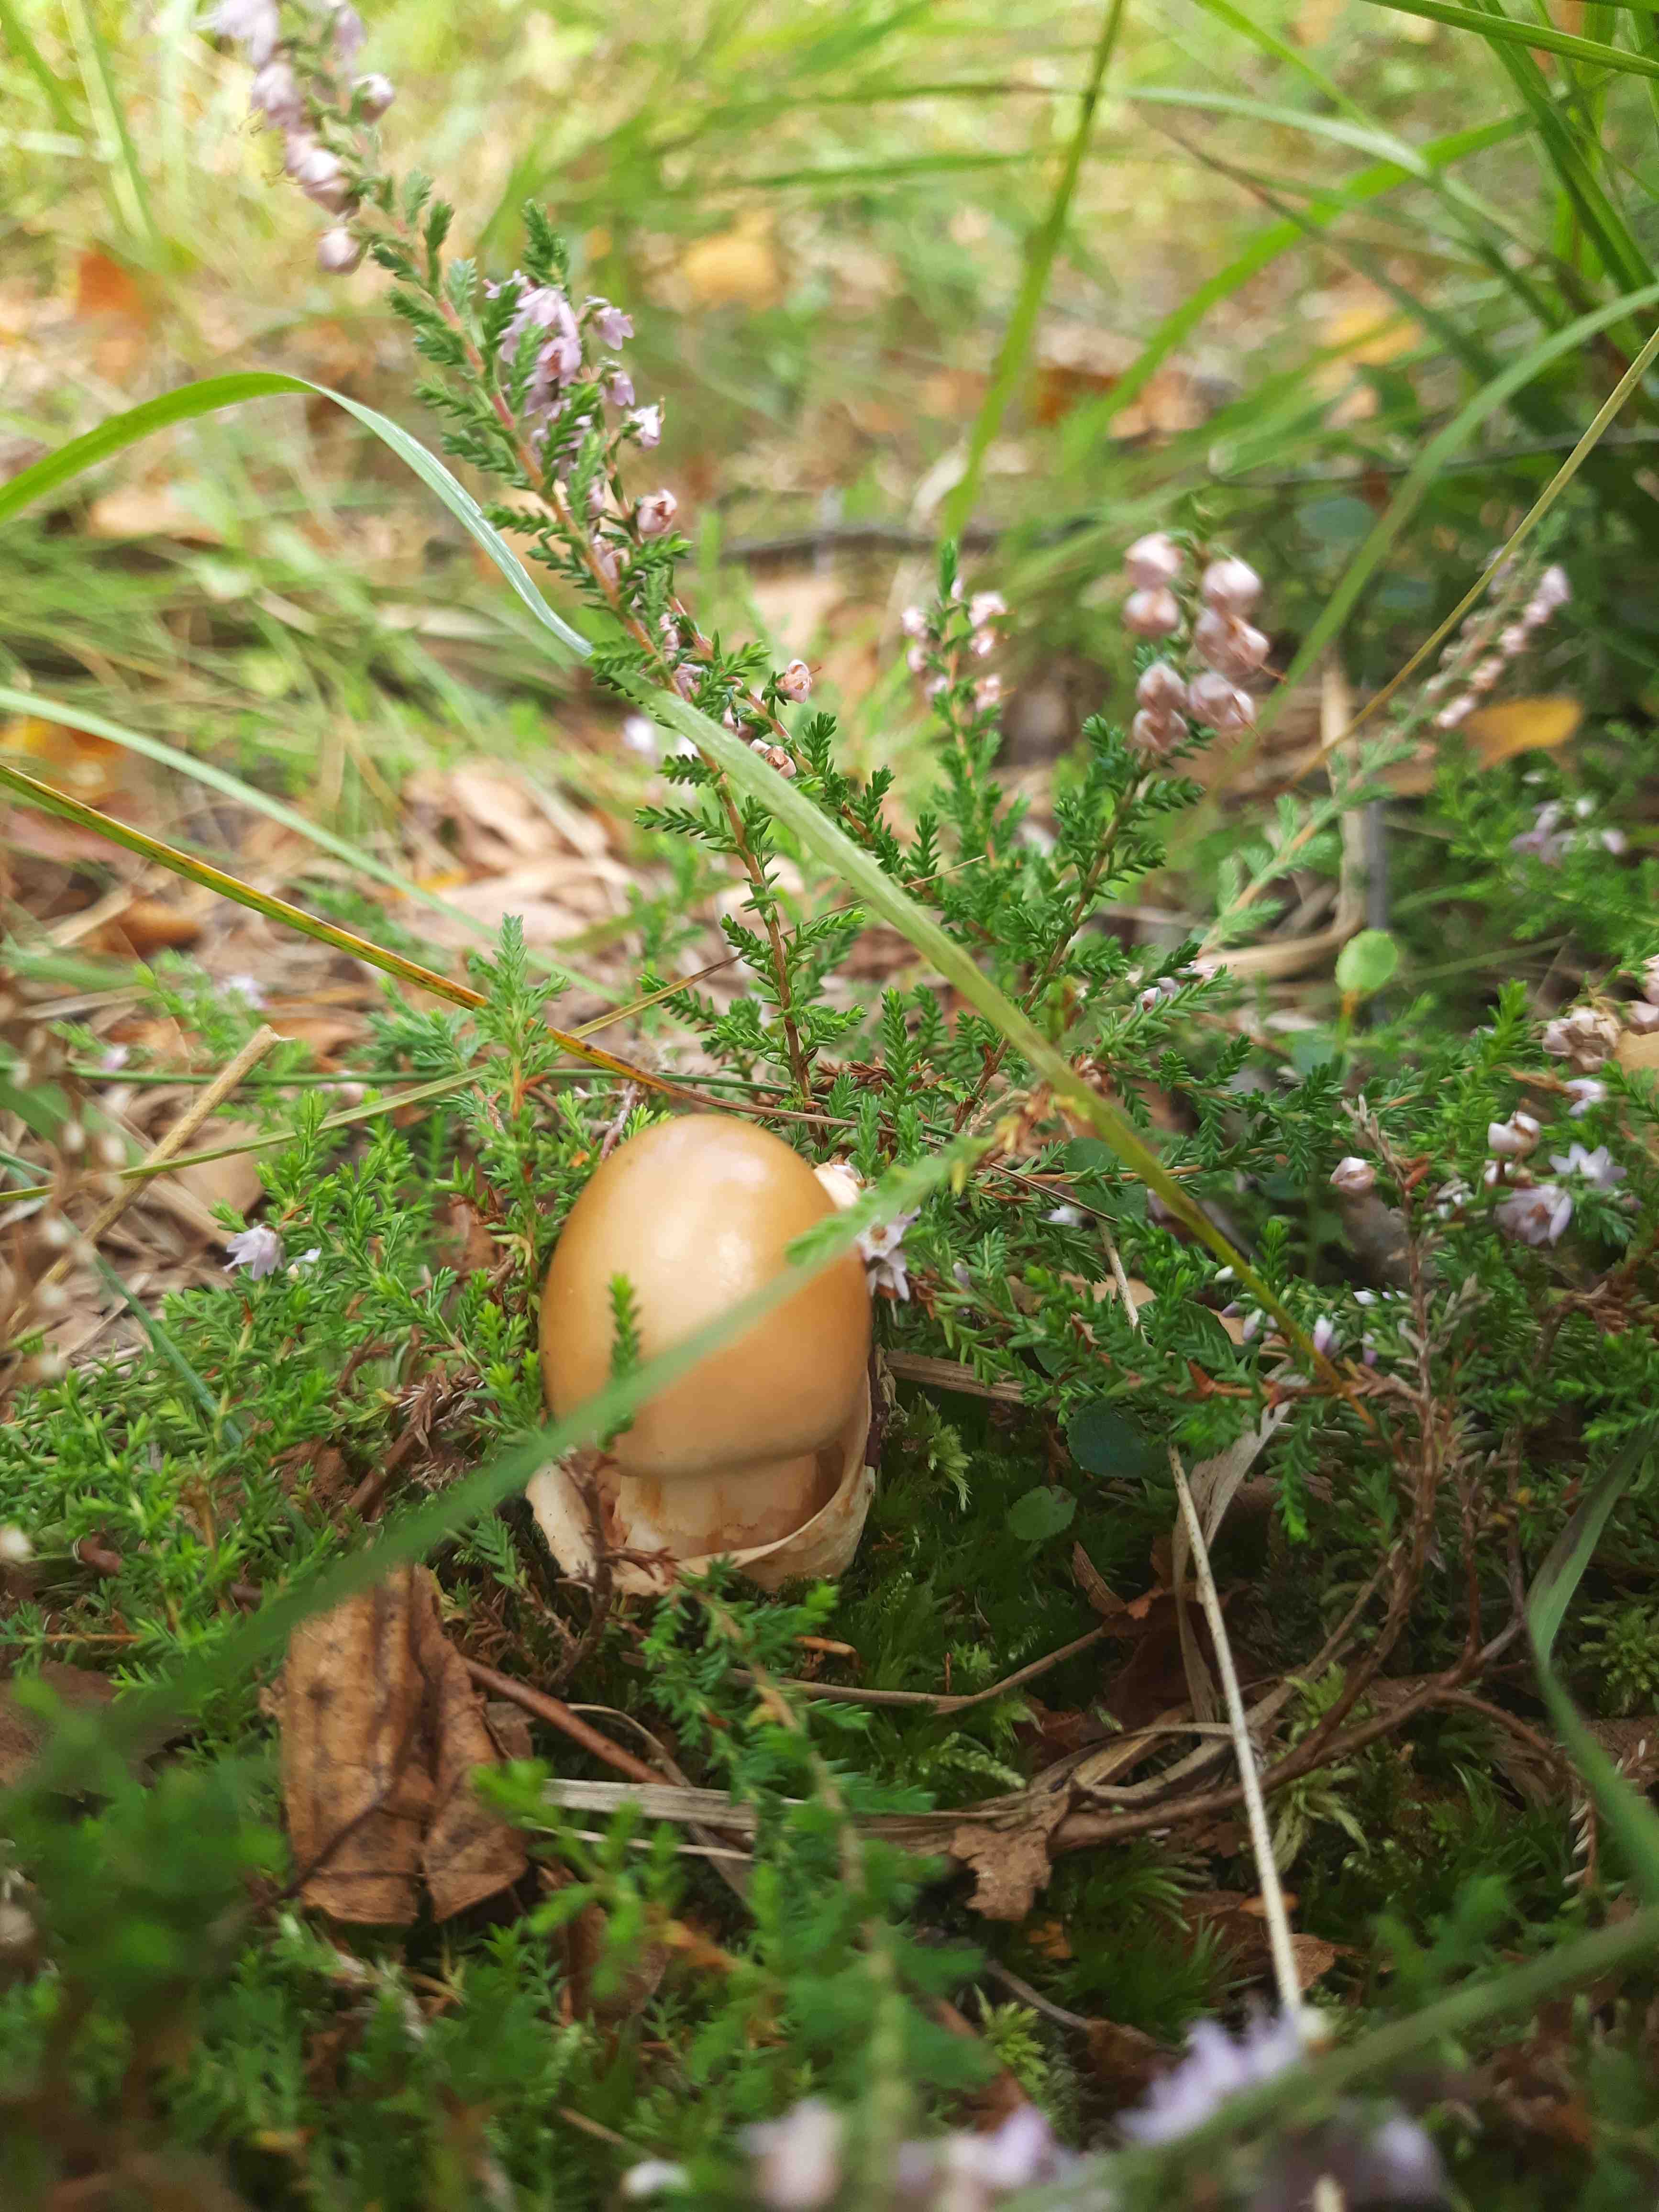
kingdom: Fungi
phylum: Basidiomycota
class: Agaricomycetes
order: Agaricales
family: Amanitaceae
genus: Amanita
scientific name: Amanita fulva
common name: brun kam-fluesvamp
